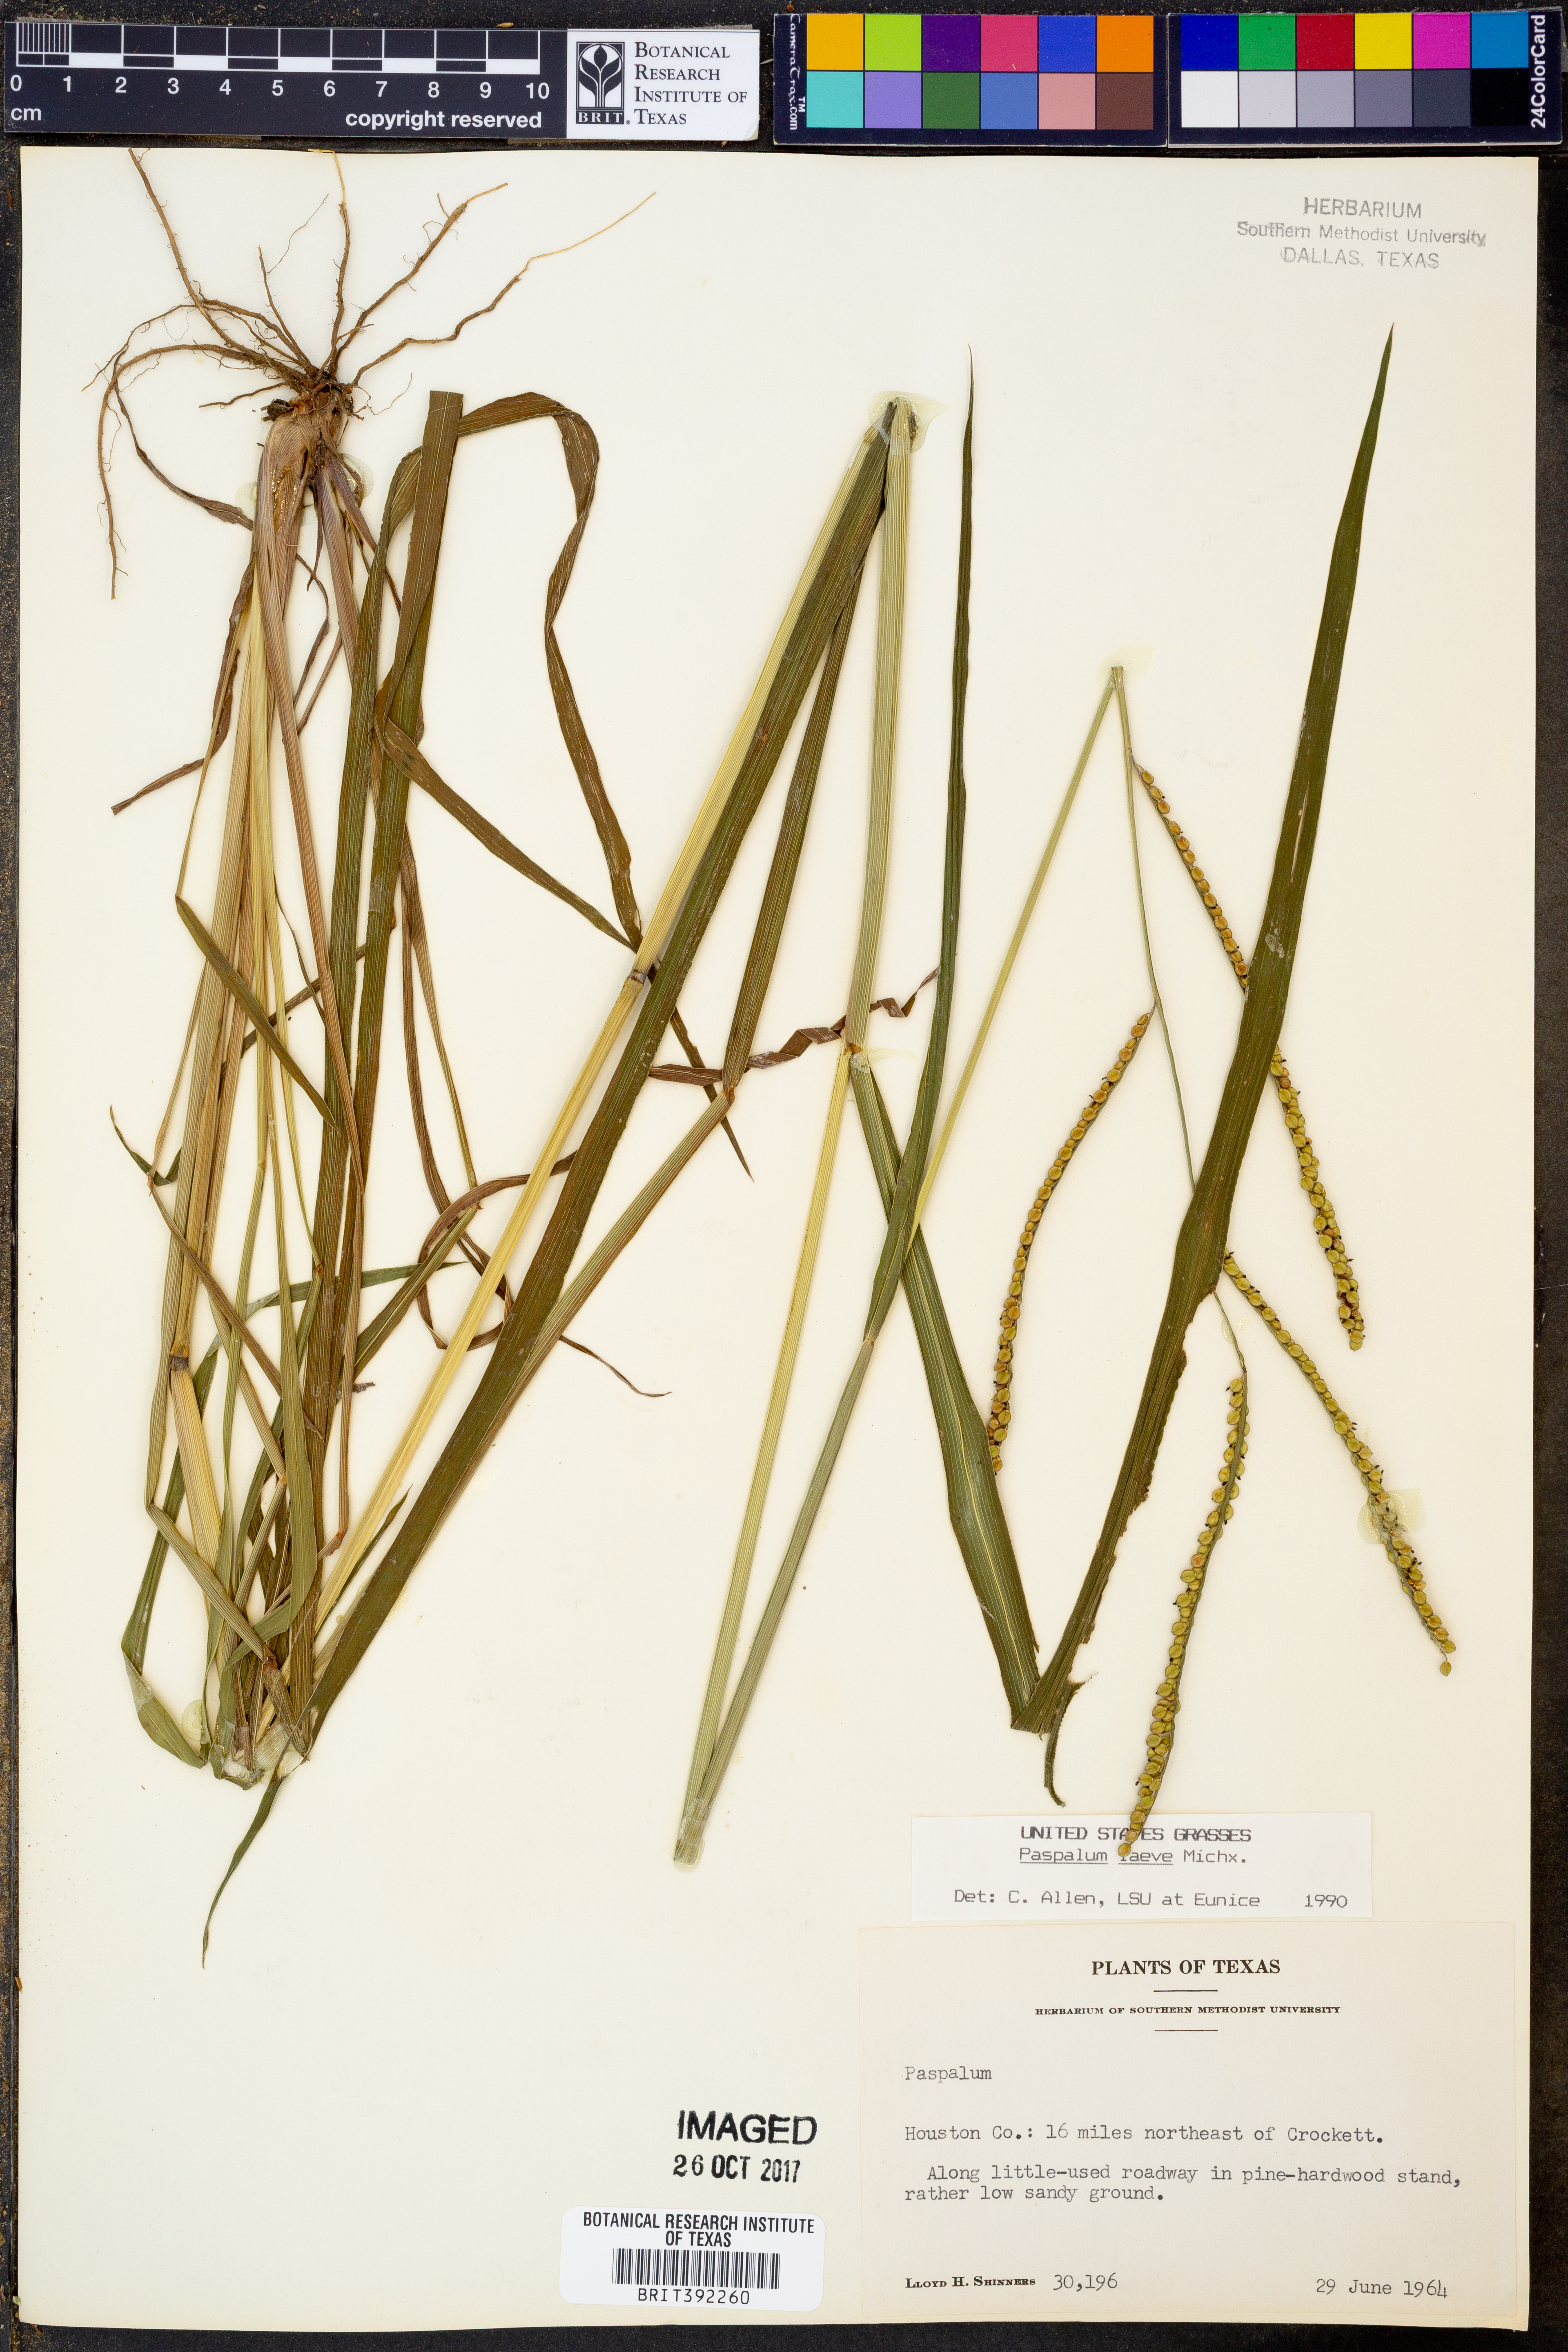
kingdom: Plantae
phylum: Tracheophyta
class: Liliopsida
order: Poales
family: Poaceae
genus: Paspalum
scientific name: Paspalum laeve
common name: Field paspalum
